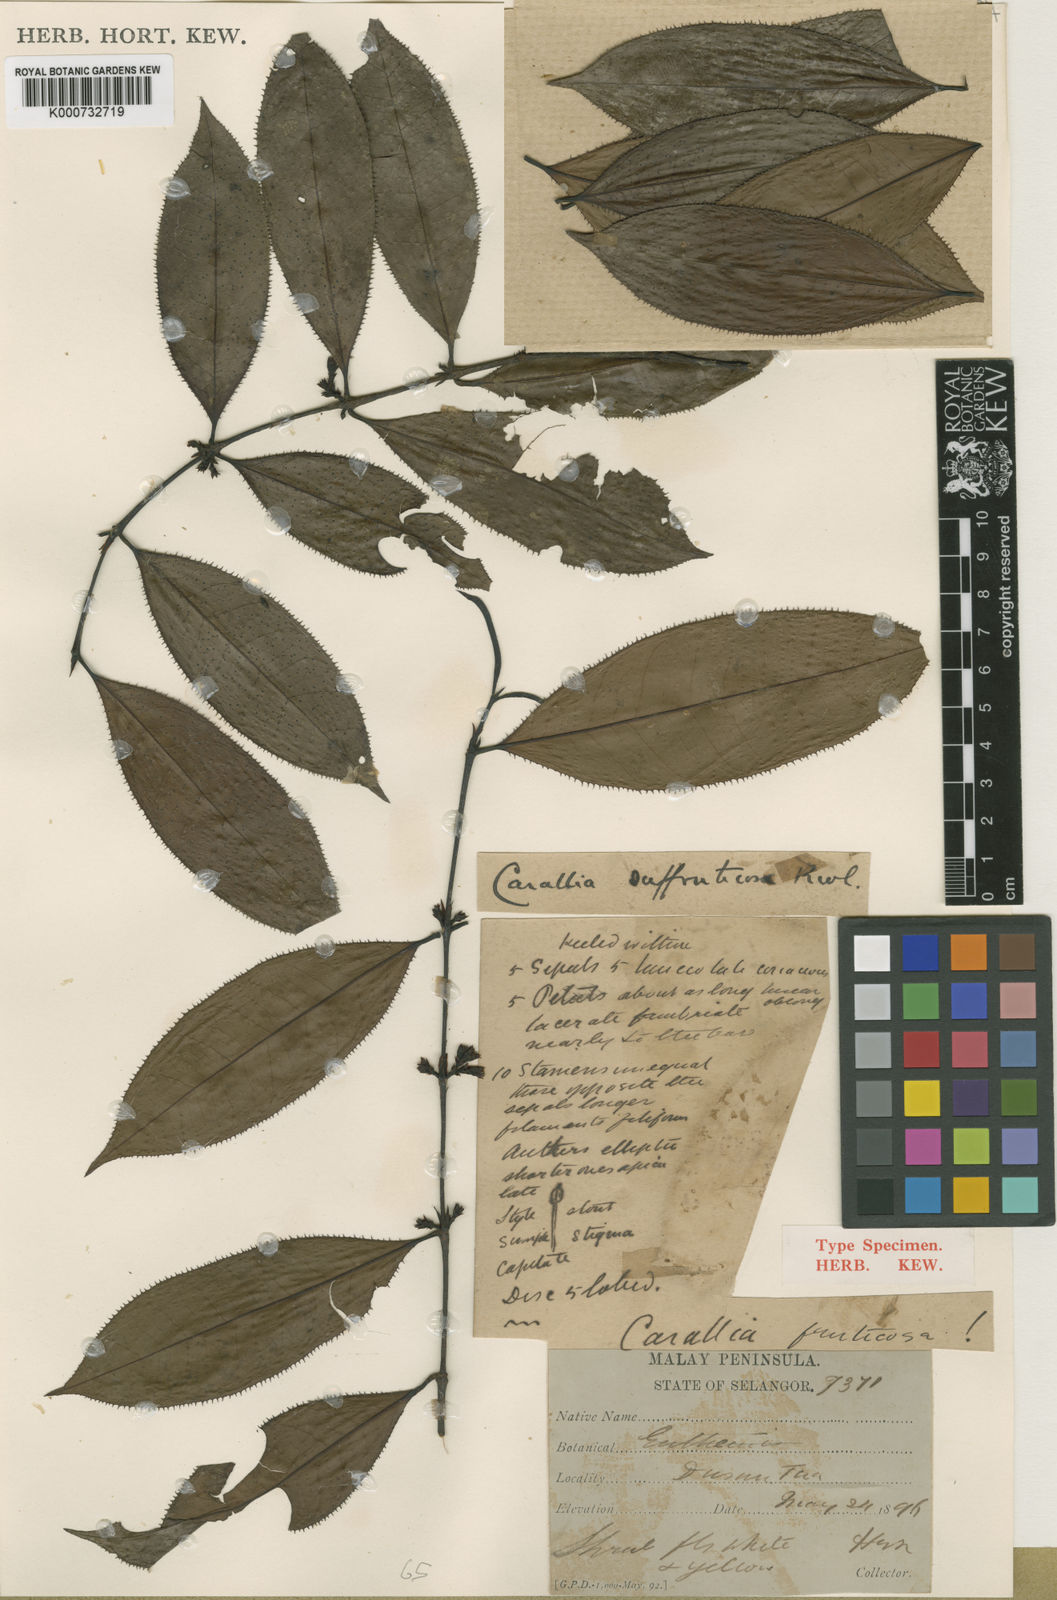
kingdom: Plantae
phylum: Tracheophyta
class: Magnoliopsida
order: Malpighiales
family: Rhizophoraceae
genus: Carallia
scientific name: Carallia suffruticosa
